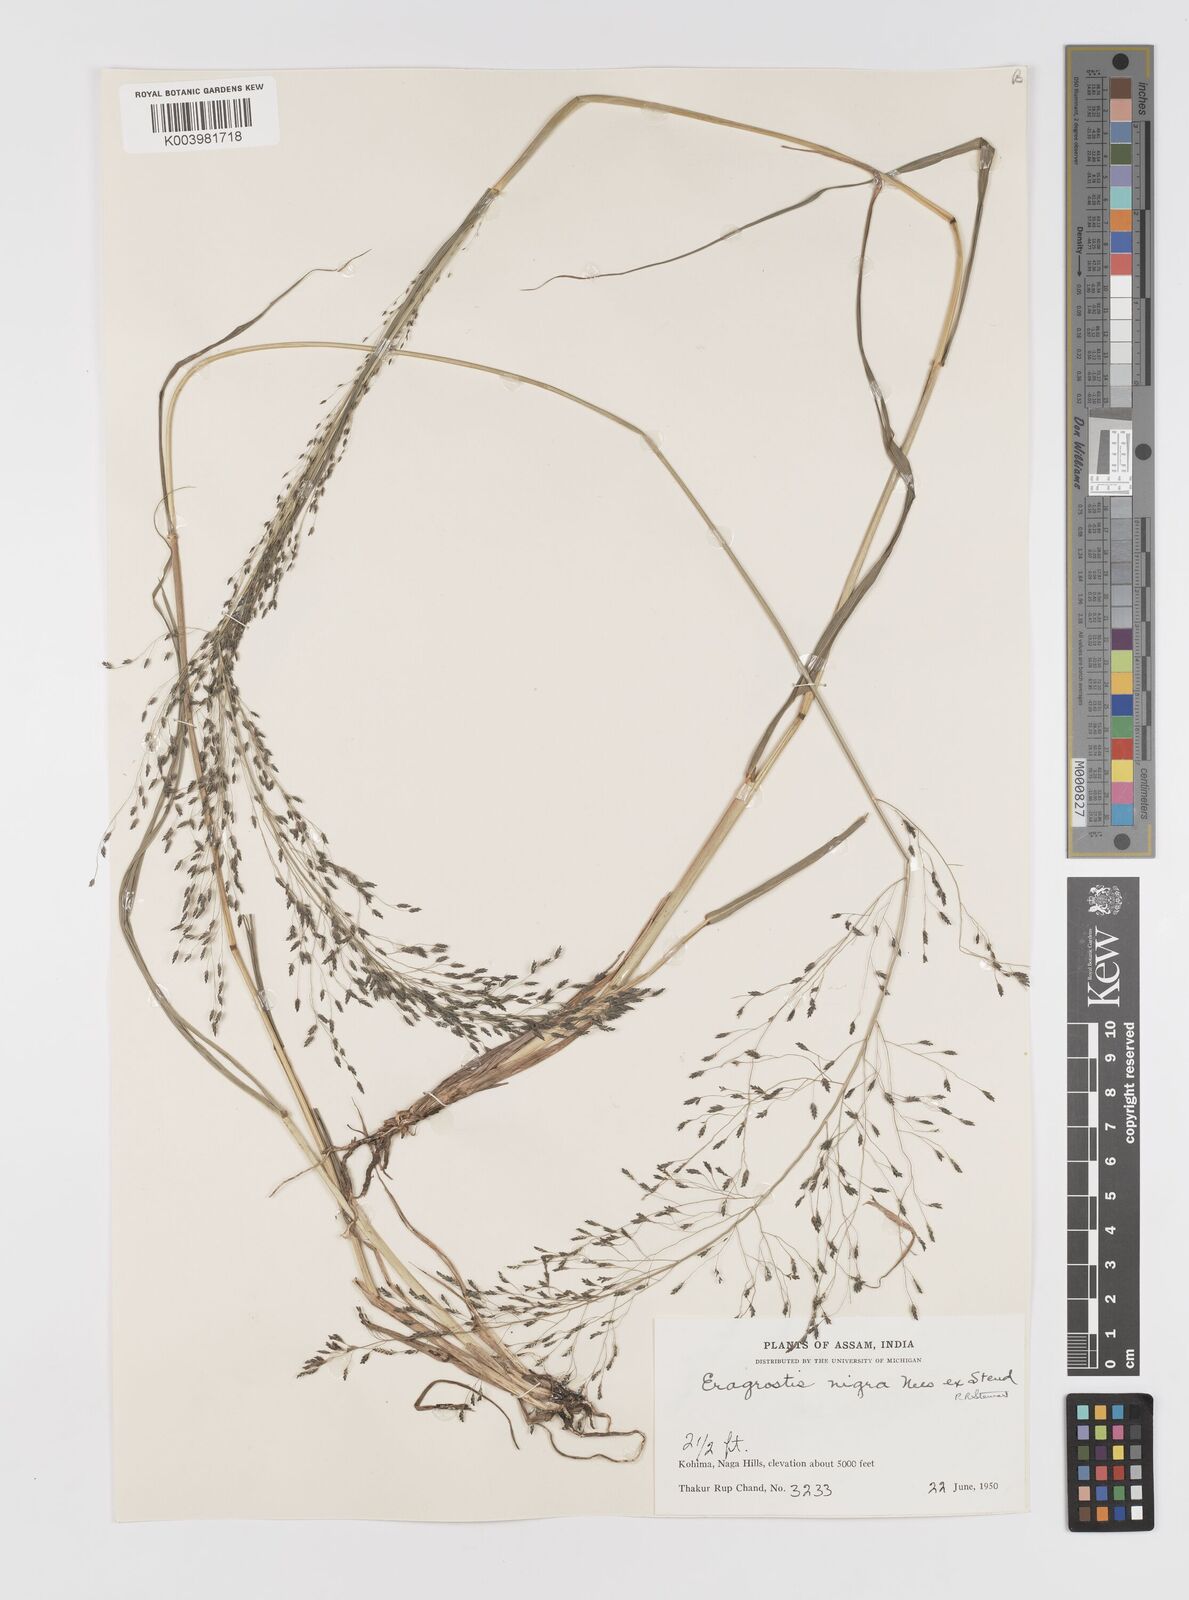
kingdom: Plantae
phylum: Tracheophyta
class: Liliopsida
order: Poales
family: Poaceae
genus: Eragrostis
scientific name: Eragrostis nigra
